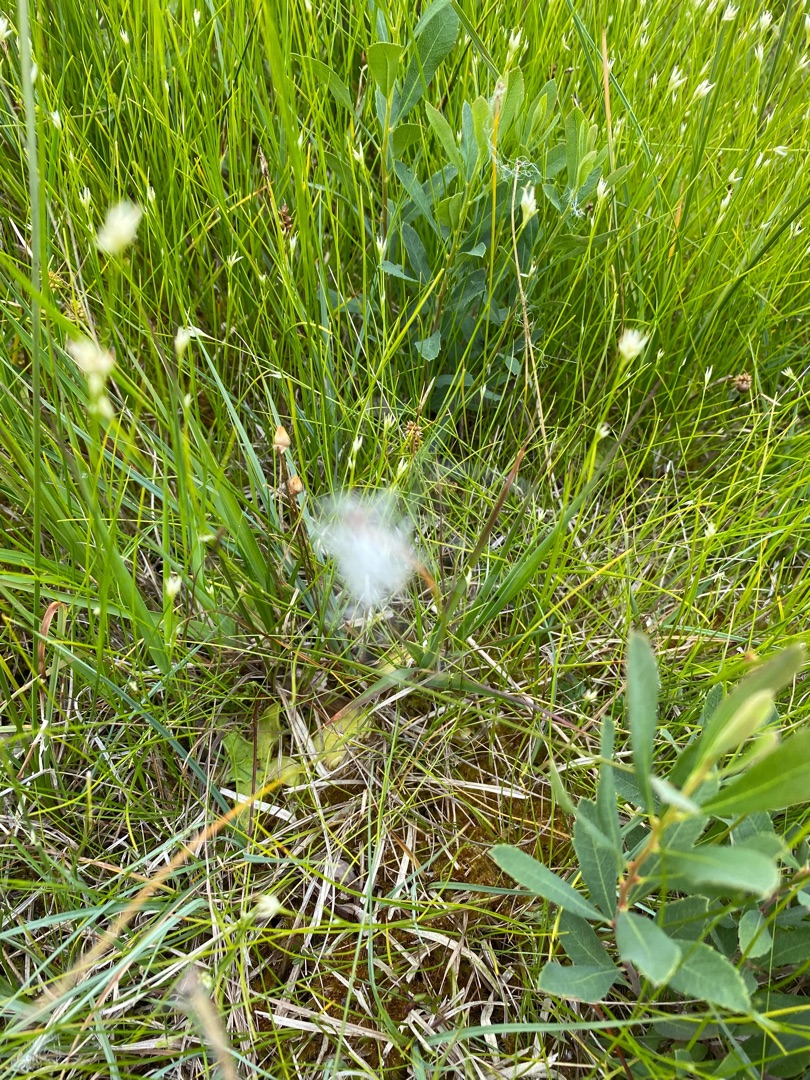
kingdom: Plantae
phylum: Tracheophyta
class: Liliopsida
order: Poales
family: Cyperaceae
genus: Trichophorum
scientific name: Trichophorum alpinum
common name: Liden kæruld
